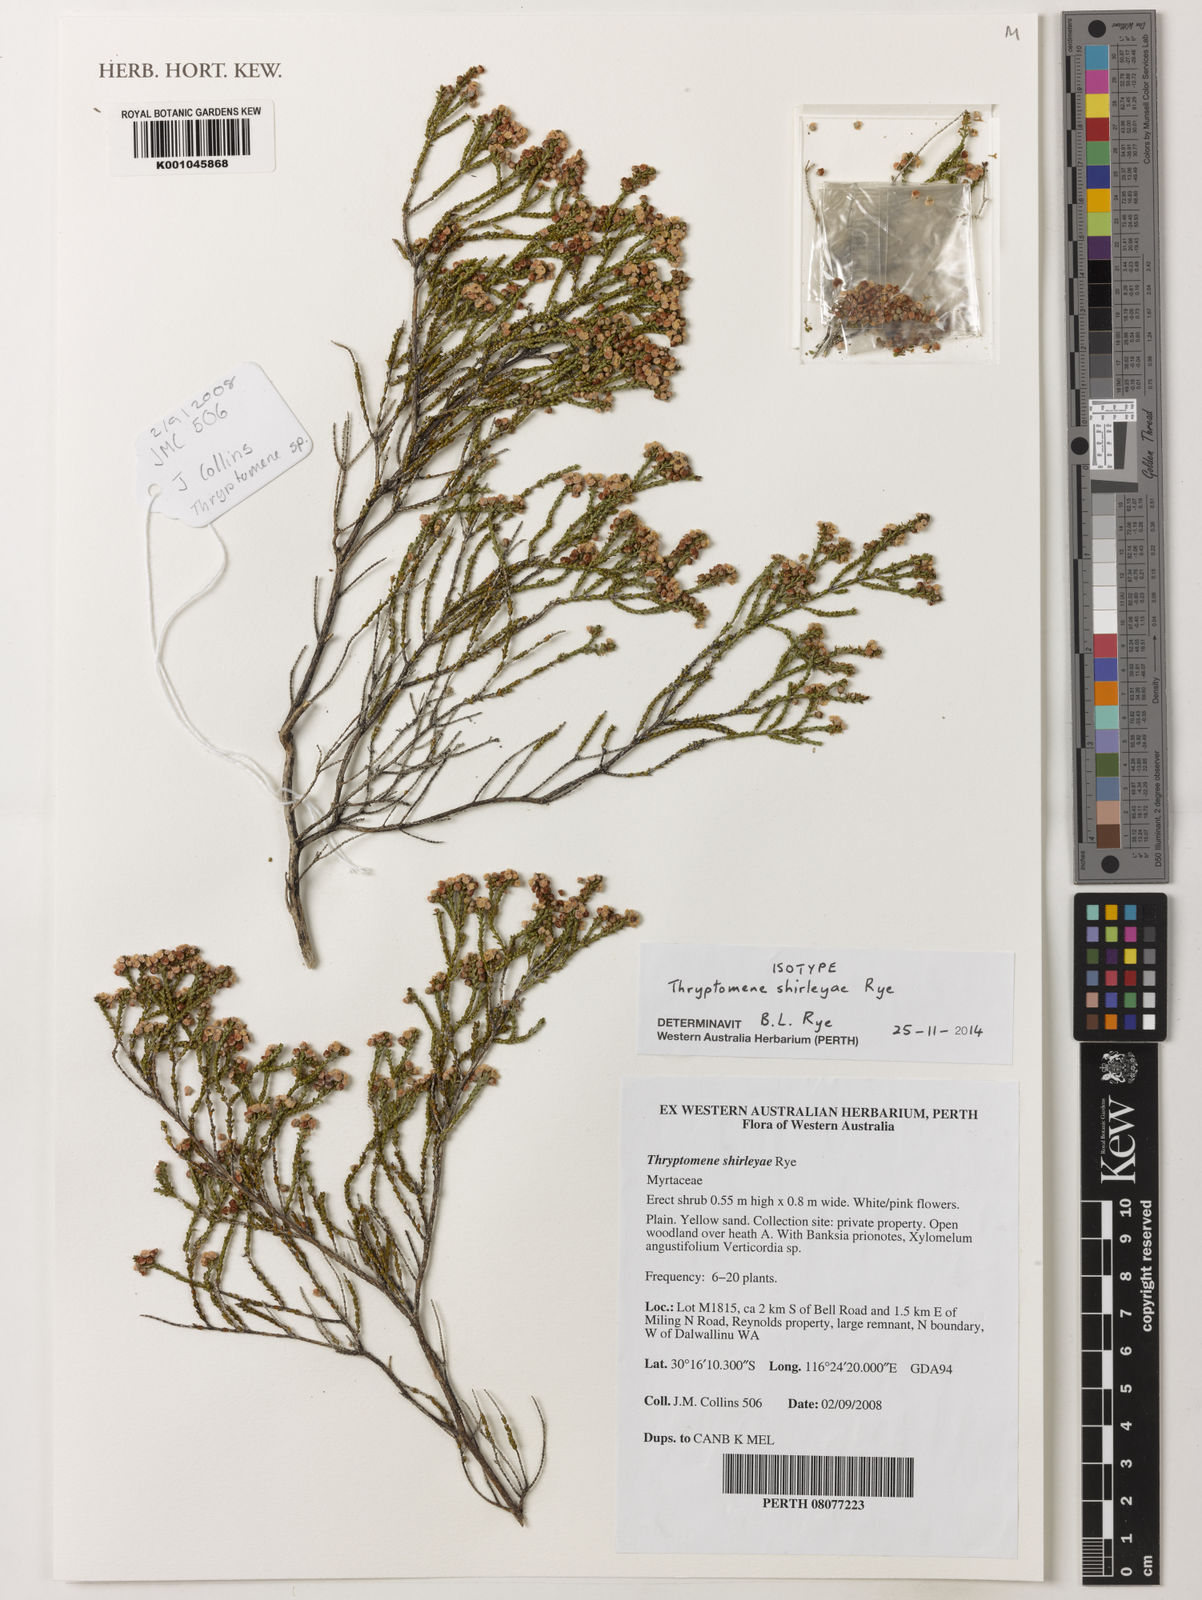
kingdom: Plantae
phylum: Tracheophyta
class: Magnoliopsida
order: Myrtales
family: Myrtaceae
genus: Thryptomene
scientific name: Thryptomene shirleyae
